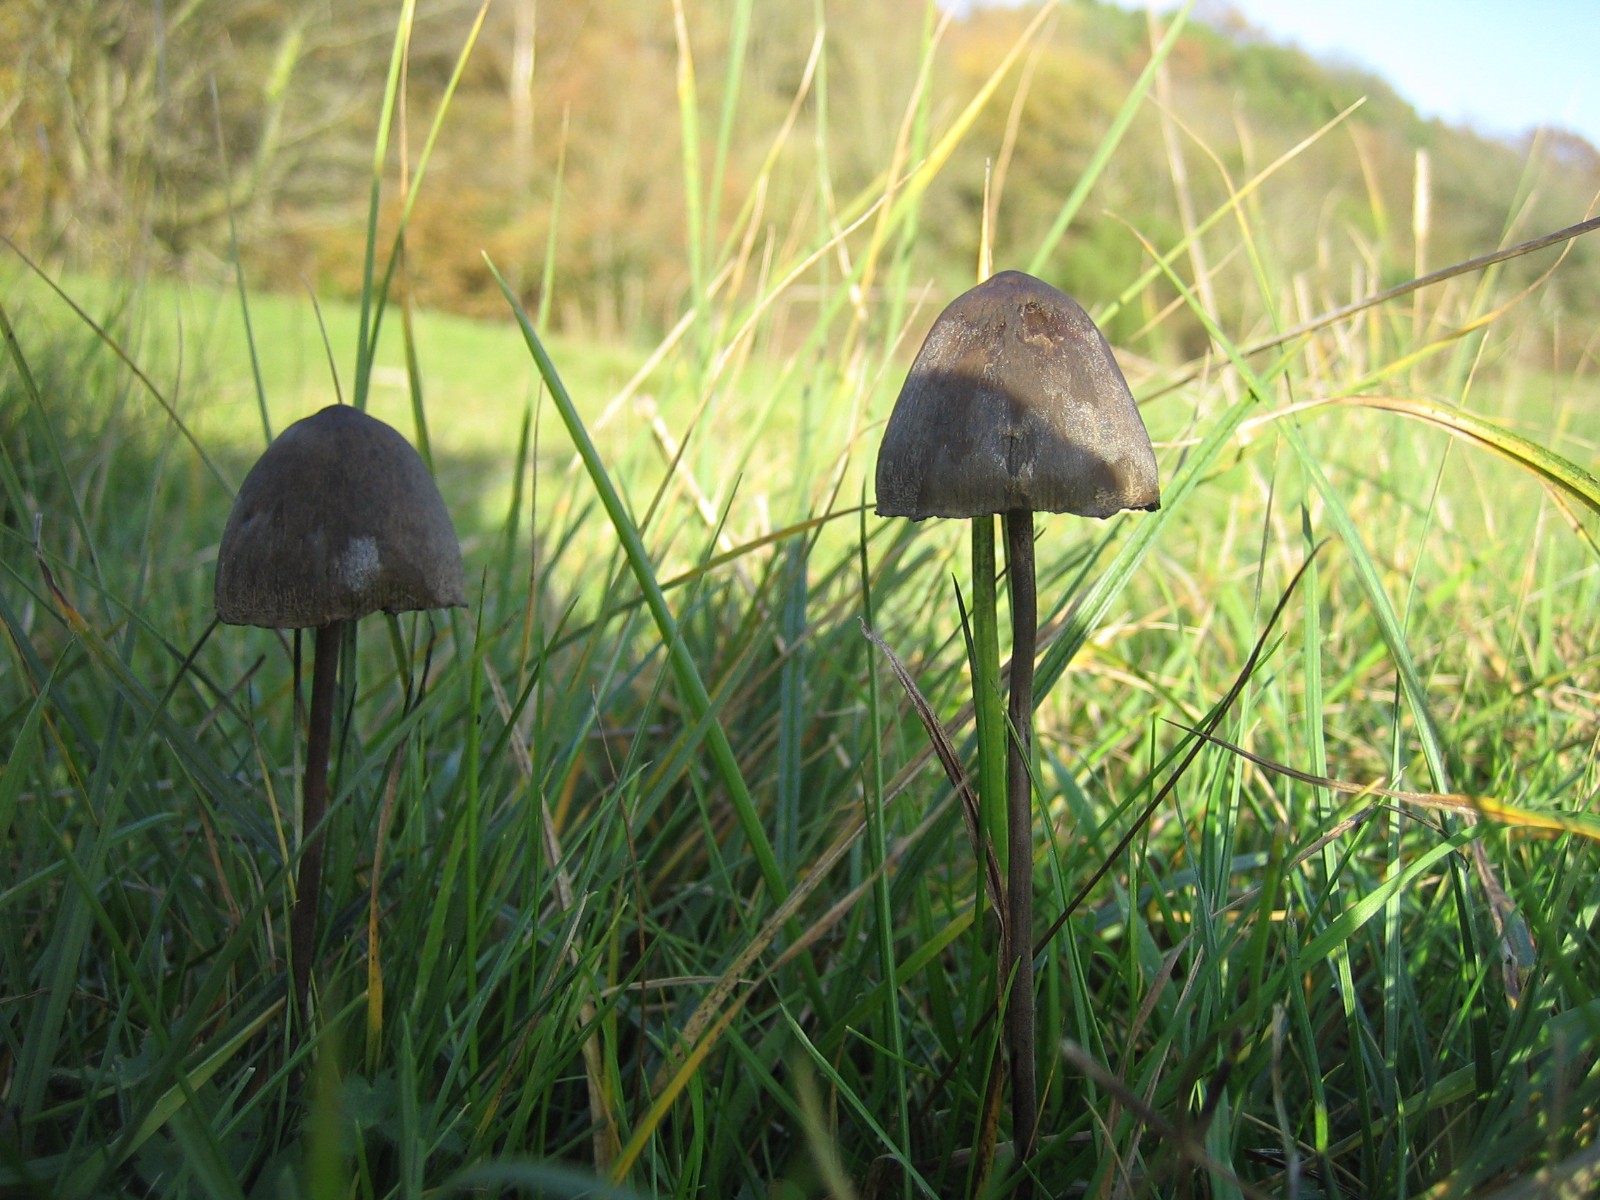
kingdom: Fungi
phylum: Basidiomycota
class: Agaricomycetes
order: Agaricales
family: Bolbitiaceae
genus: Panaeolus
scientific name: Panaeolus papilionaceus
